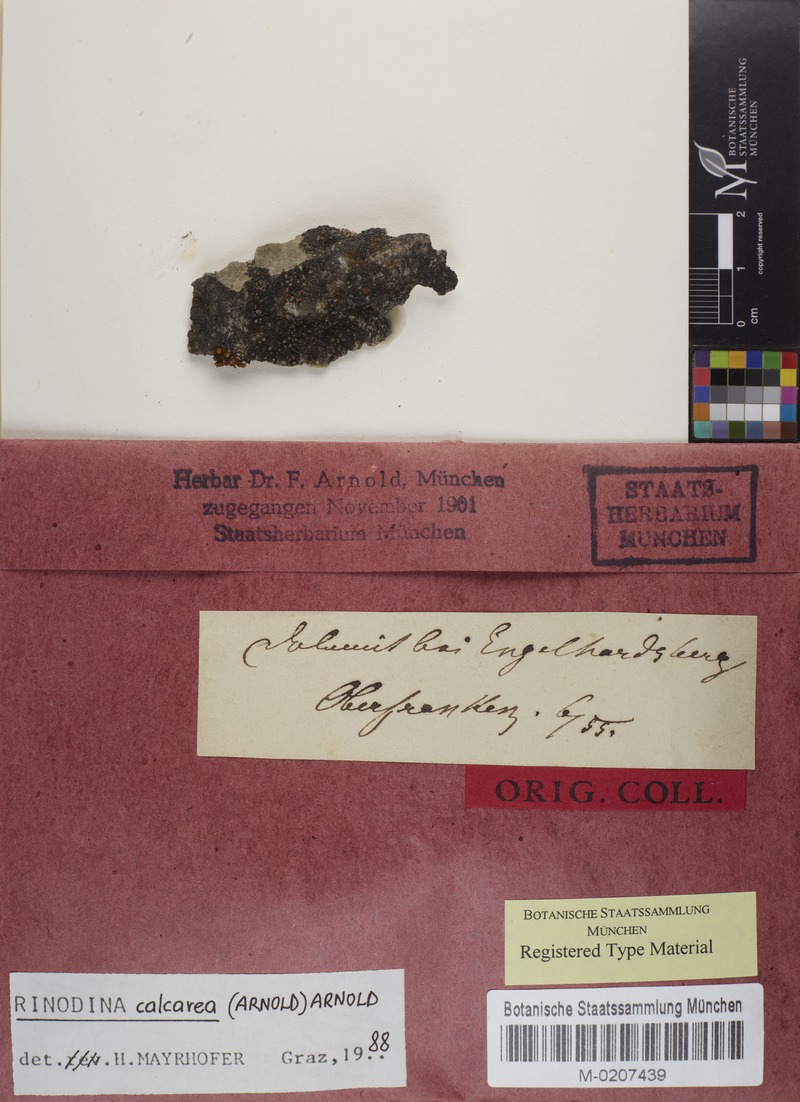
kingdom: Fungi
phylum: Ascomycota
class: Lecanoromycetes
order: Caliciales
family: Physciaceae
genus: Rinodina
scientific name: Rinodina calcarea
